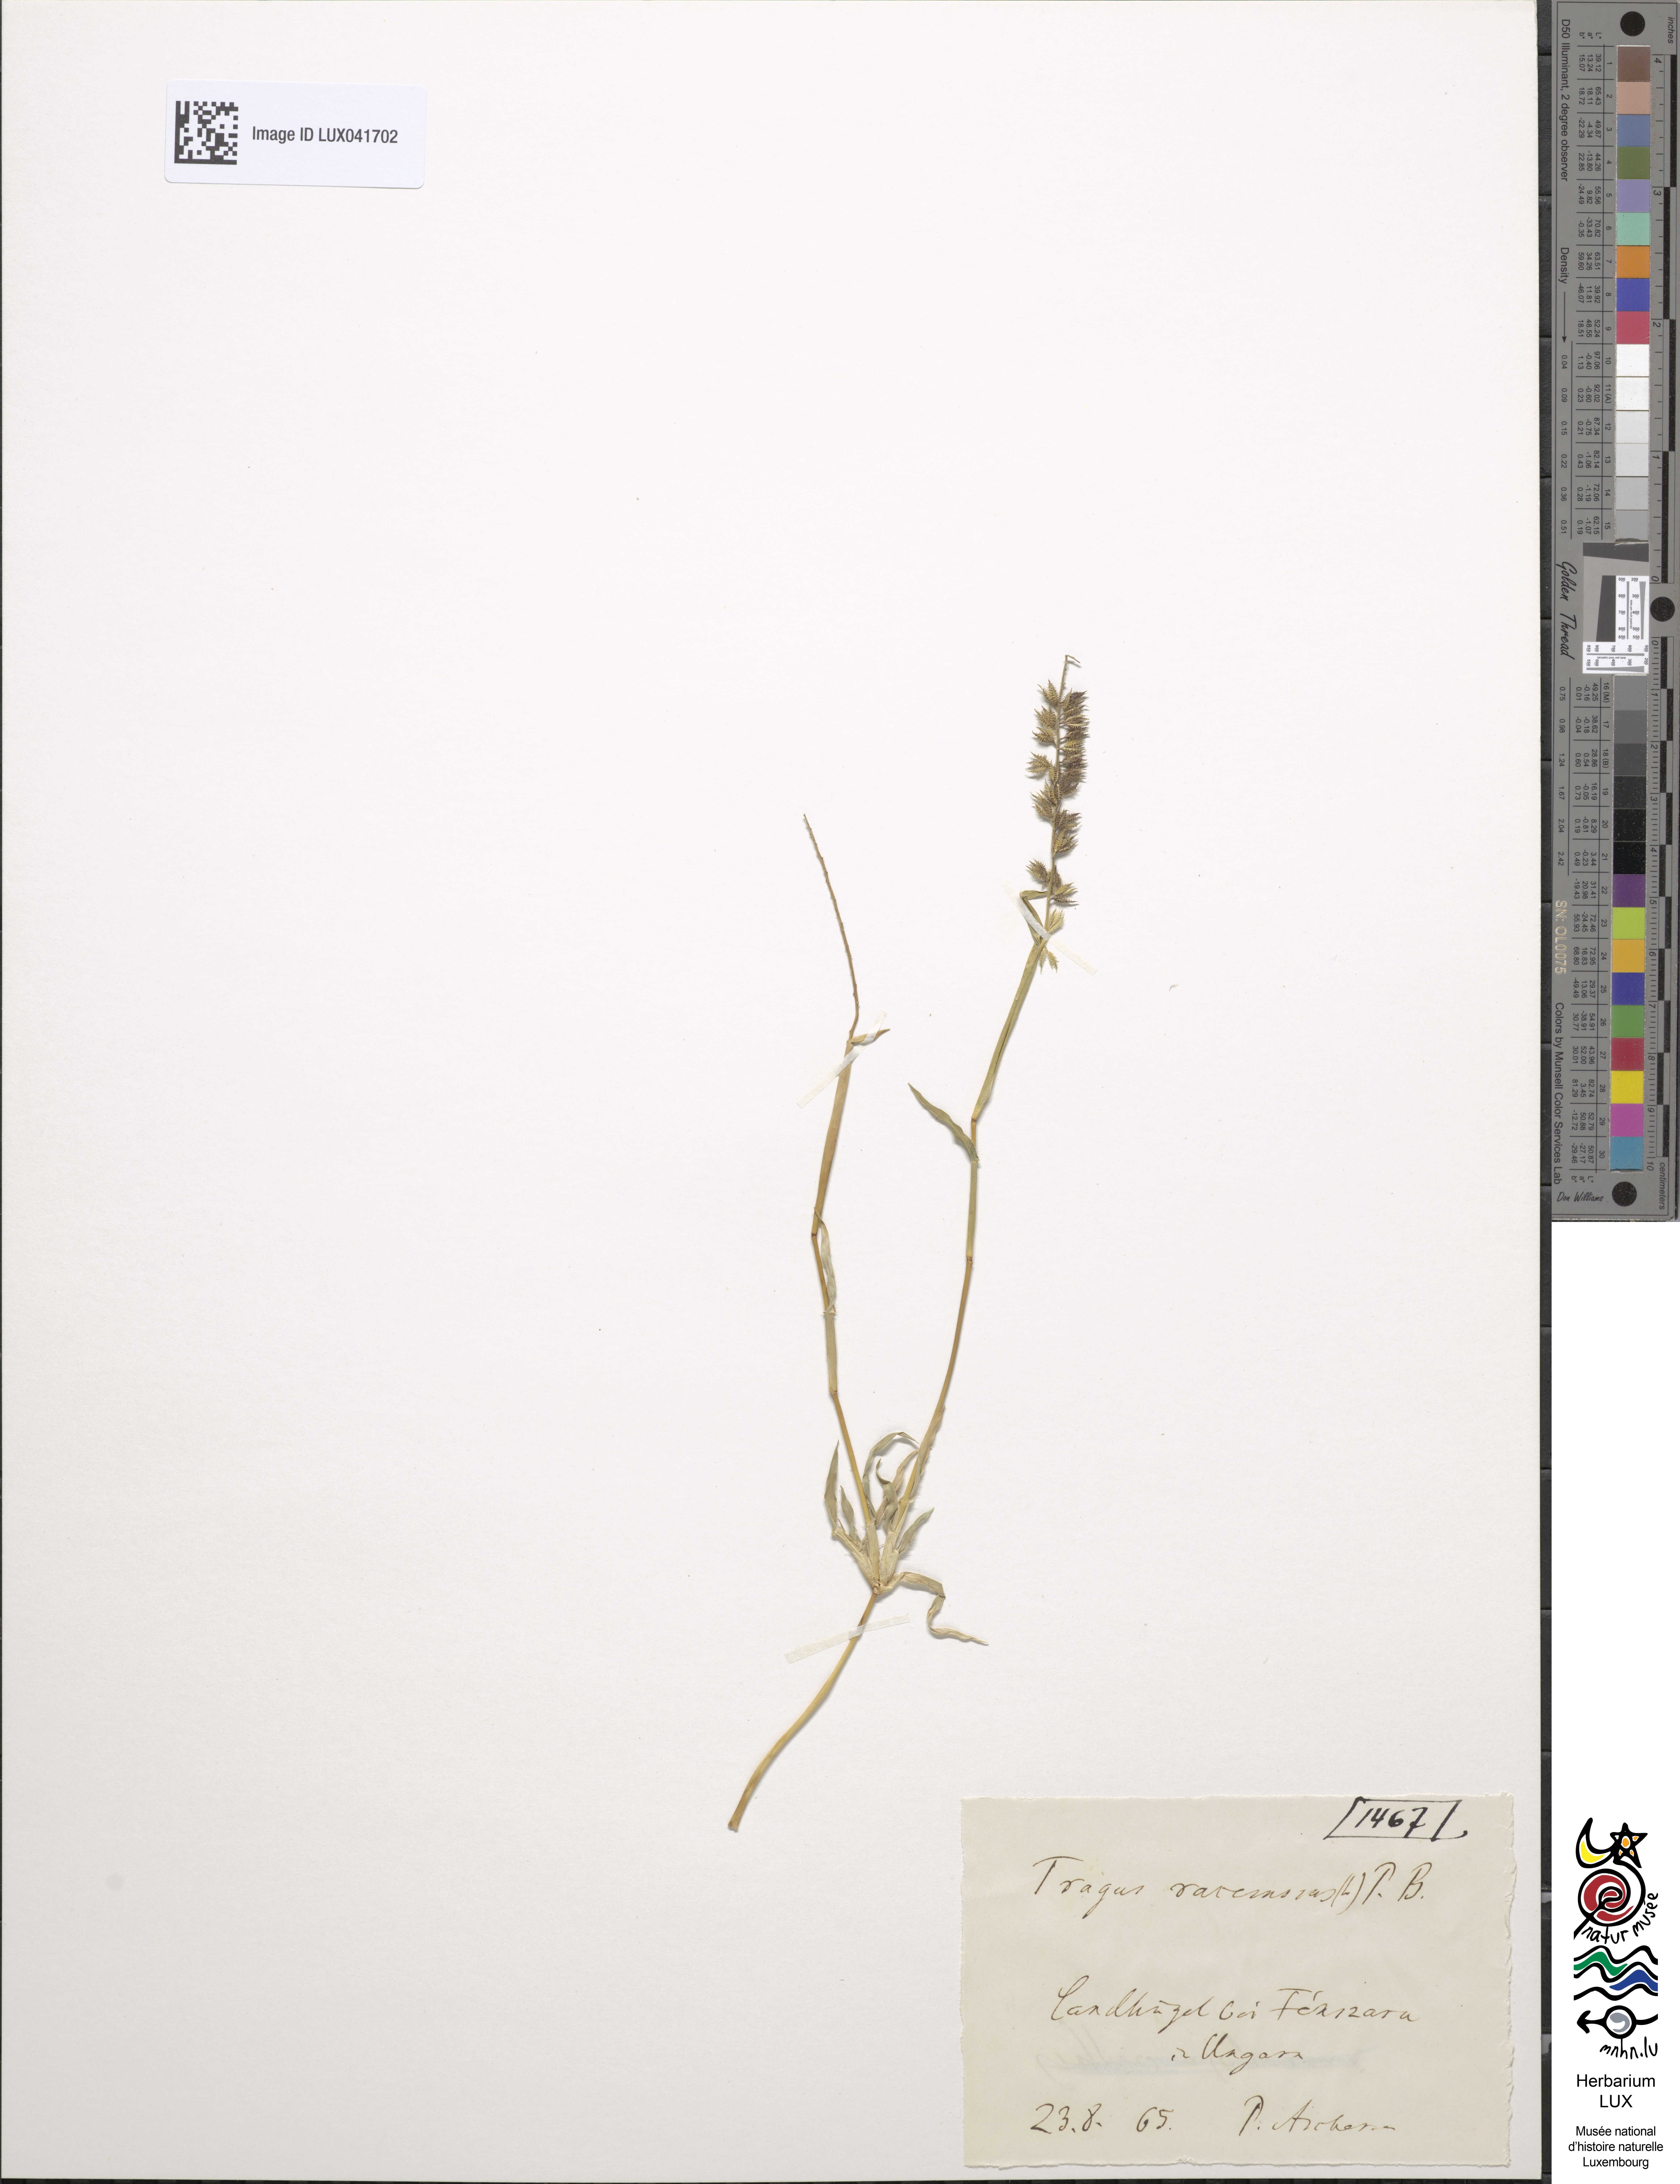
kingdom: Plantae
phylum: Tracheophyta
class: Liliopsida
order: Poales
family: Poaceae
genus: Tragus
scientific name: Tragus racemosus
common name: European bur-grass
